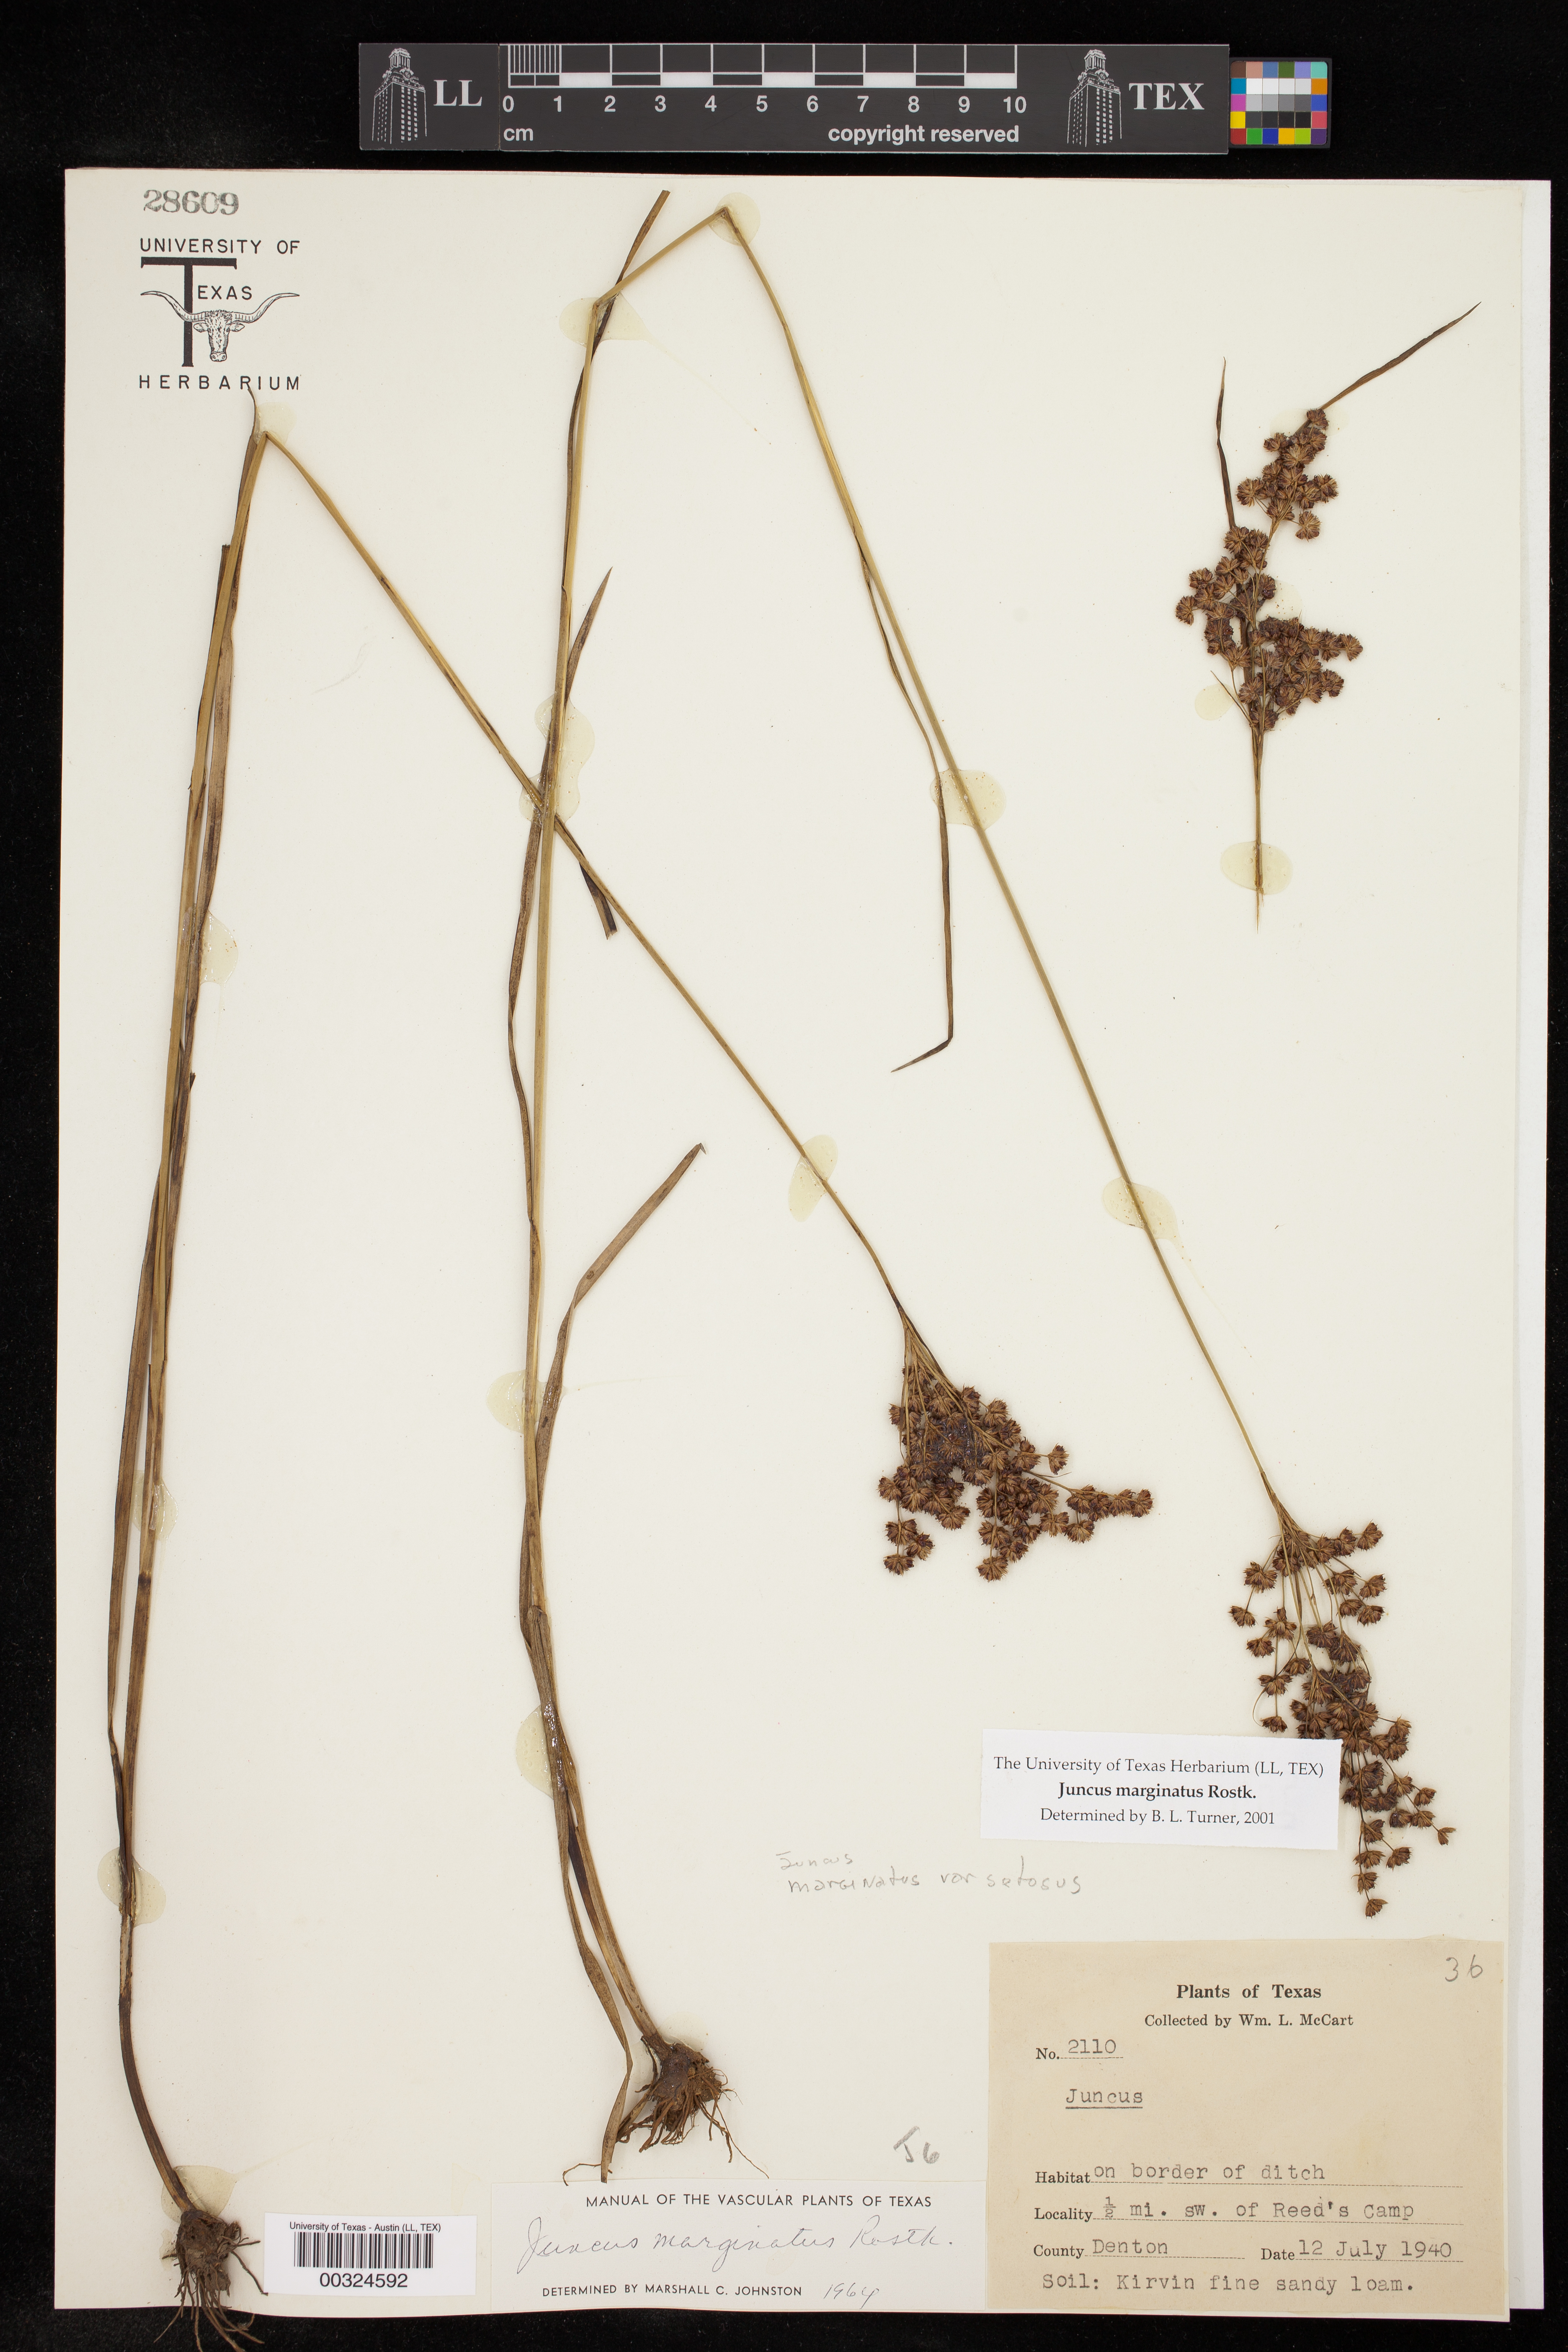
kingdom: Plantae
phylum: Tracheophyta
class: Liliopsida
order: Poales
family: Juncaceae
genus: Juncus
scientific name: Juncus marginatus
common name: Grass-leaf rush
